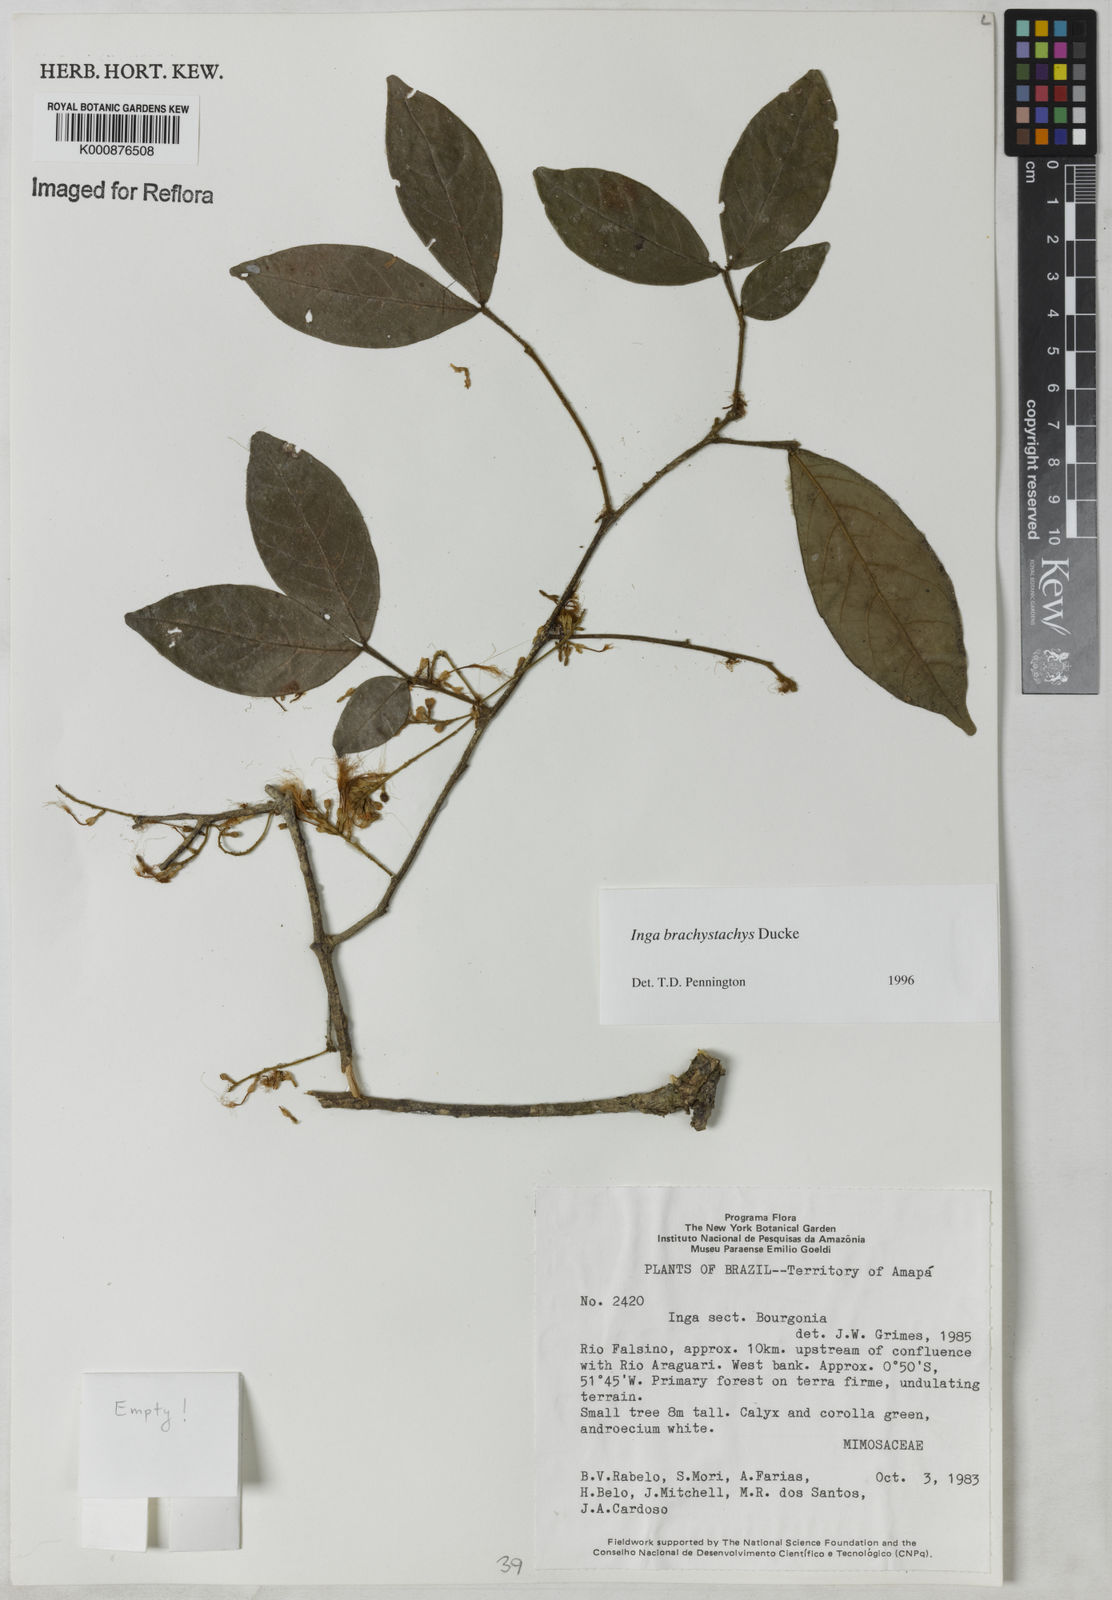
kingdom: Plantae
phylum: Tracheophyta
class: Magnoliopsida
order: Fabales
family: Fabaceae
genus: Inga
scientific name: Inga brachystachys
